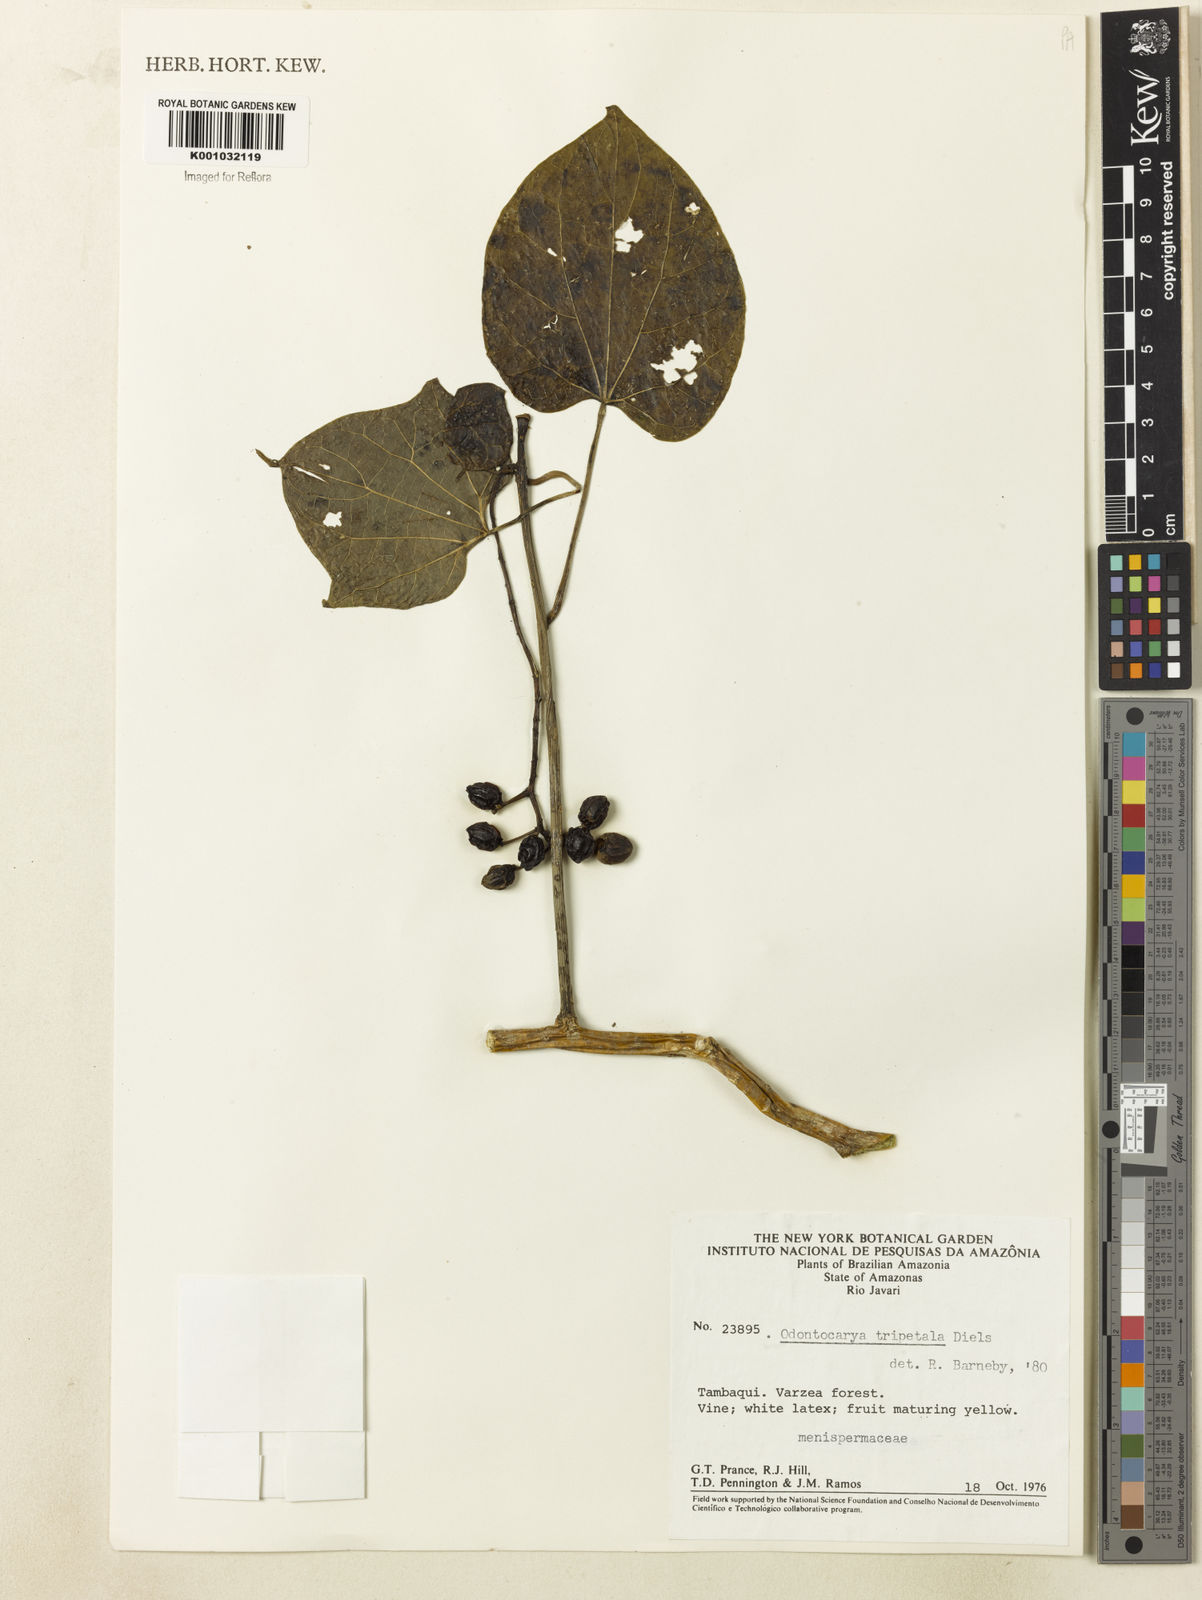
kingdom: Plantae
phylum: Tracheophyta
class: Magnoliopsida
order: Ranunculales
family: Menispermaceae
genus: Odontocarya
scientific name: Odontocarya tripetala
